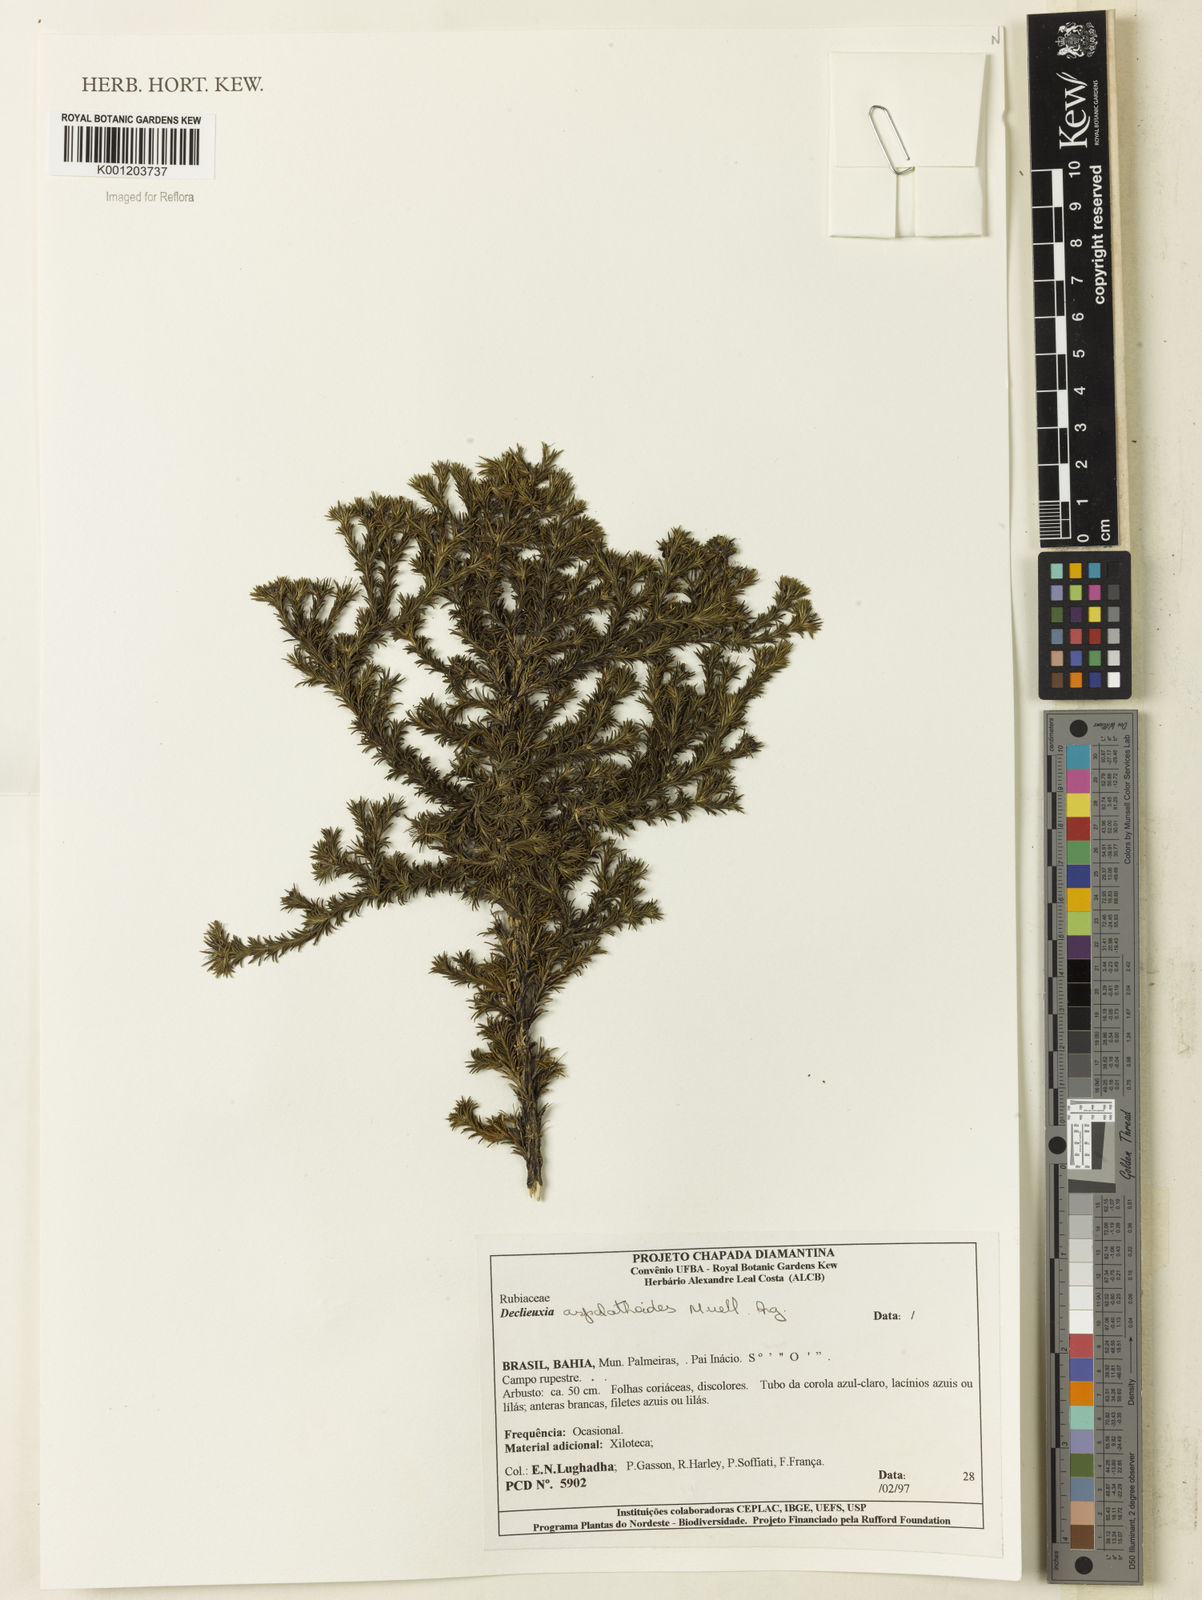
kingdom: Plantae
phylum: Tracheophyta
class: Magnoliopsida
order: Gentianales
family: Rubiaceae
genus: Declieuxia
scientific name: Declieuxia
